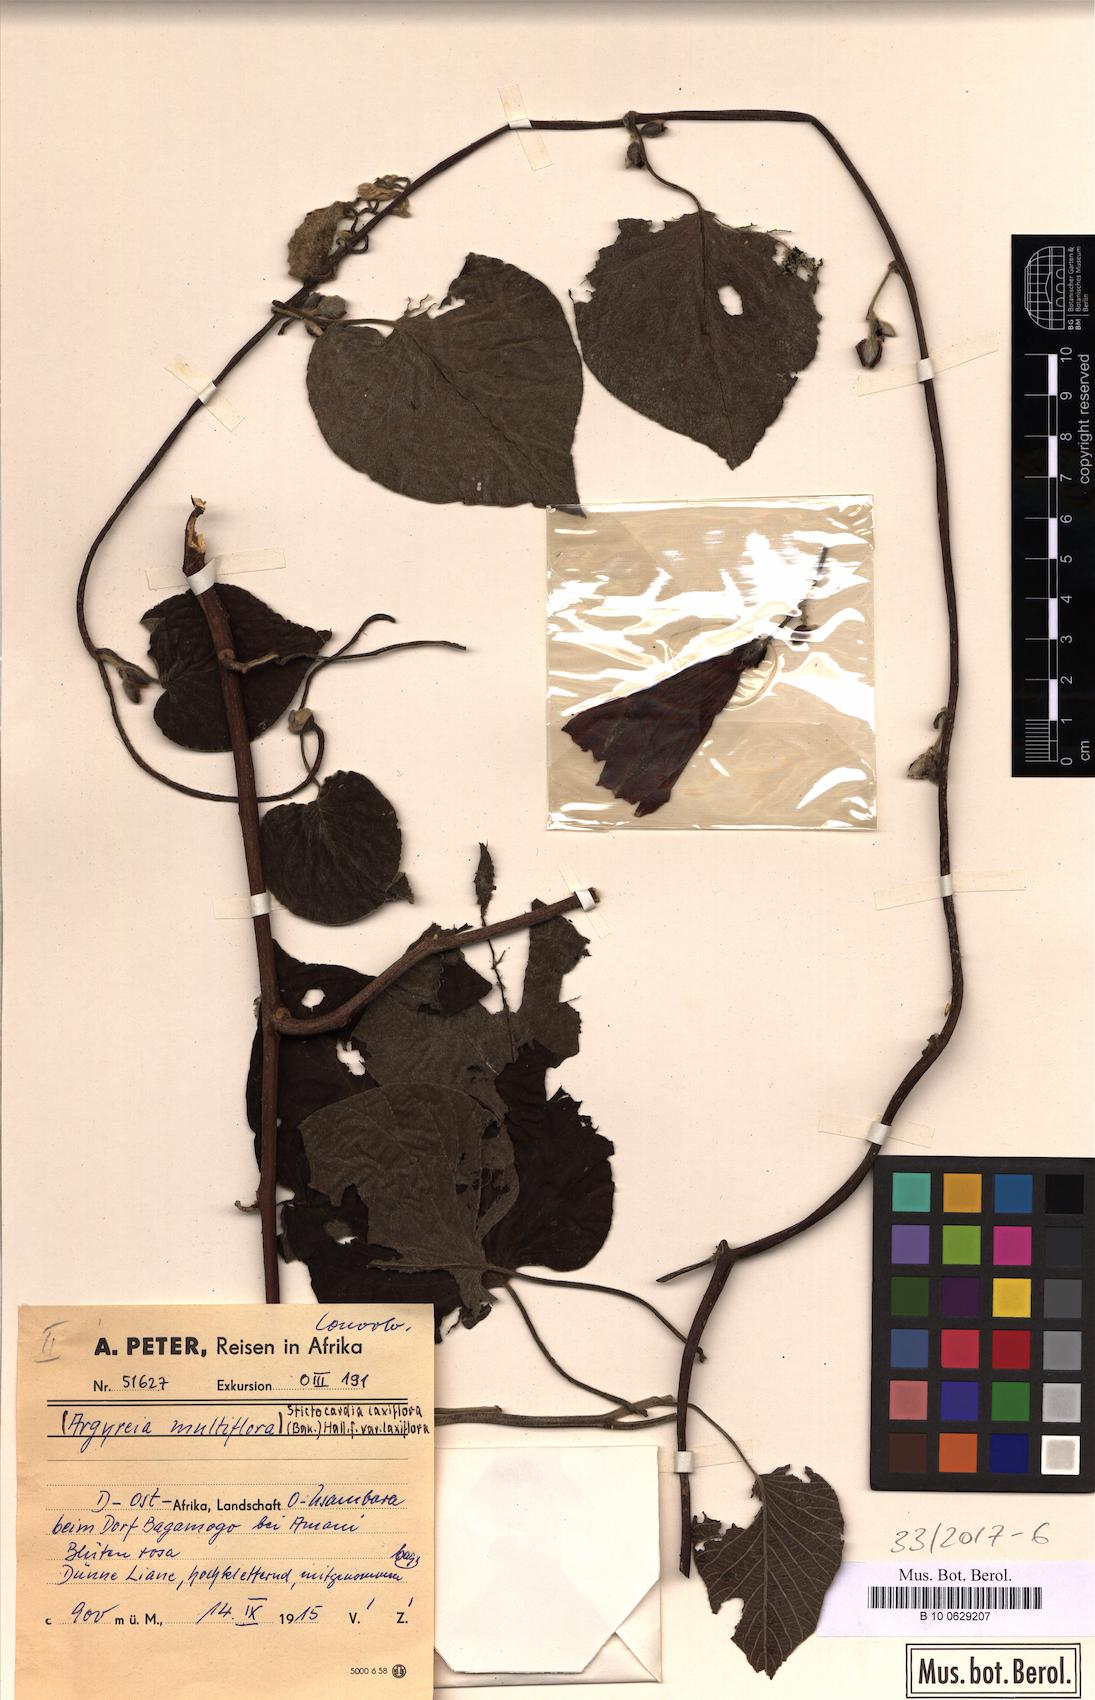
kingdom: Plantae
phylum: Tracheophyta
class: Magnoliopsida
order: Solanales
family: Convolvulaceae
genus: Stictocardia
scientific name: Stictocardia laxiflora
